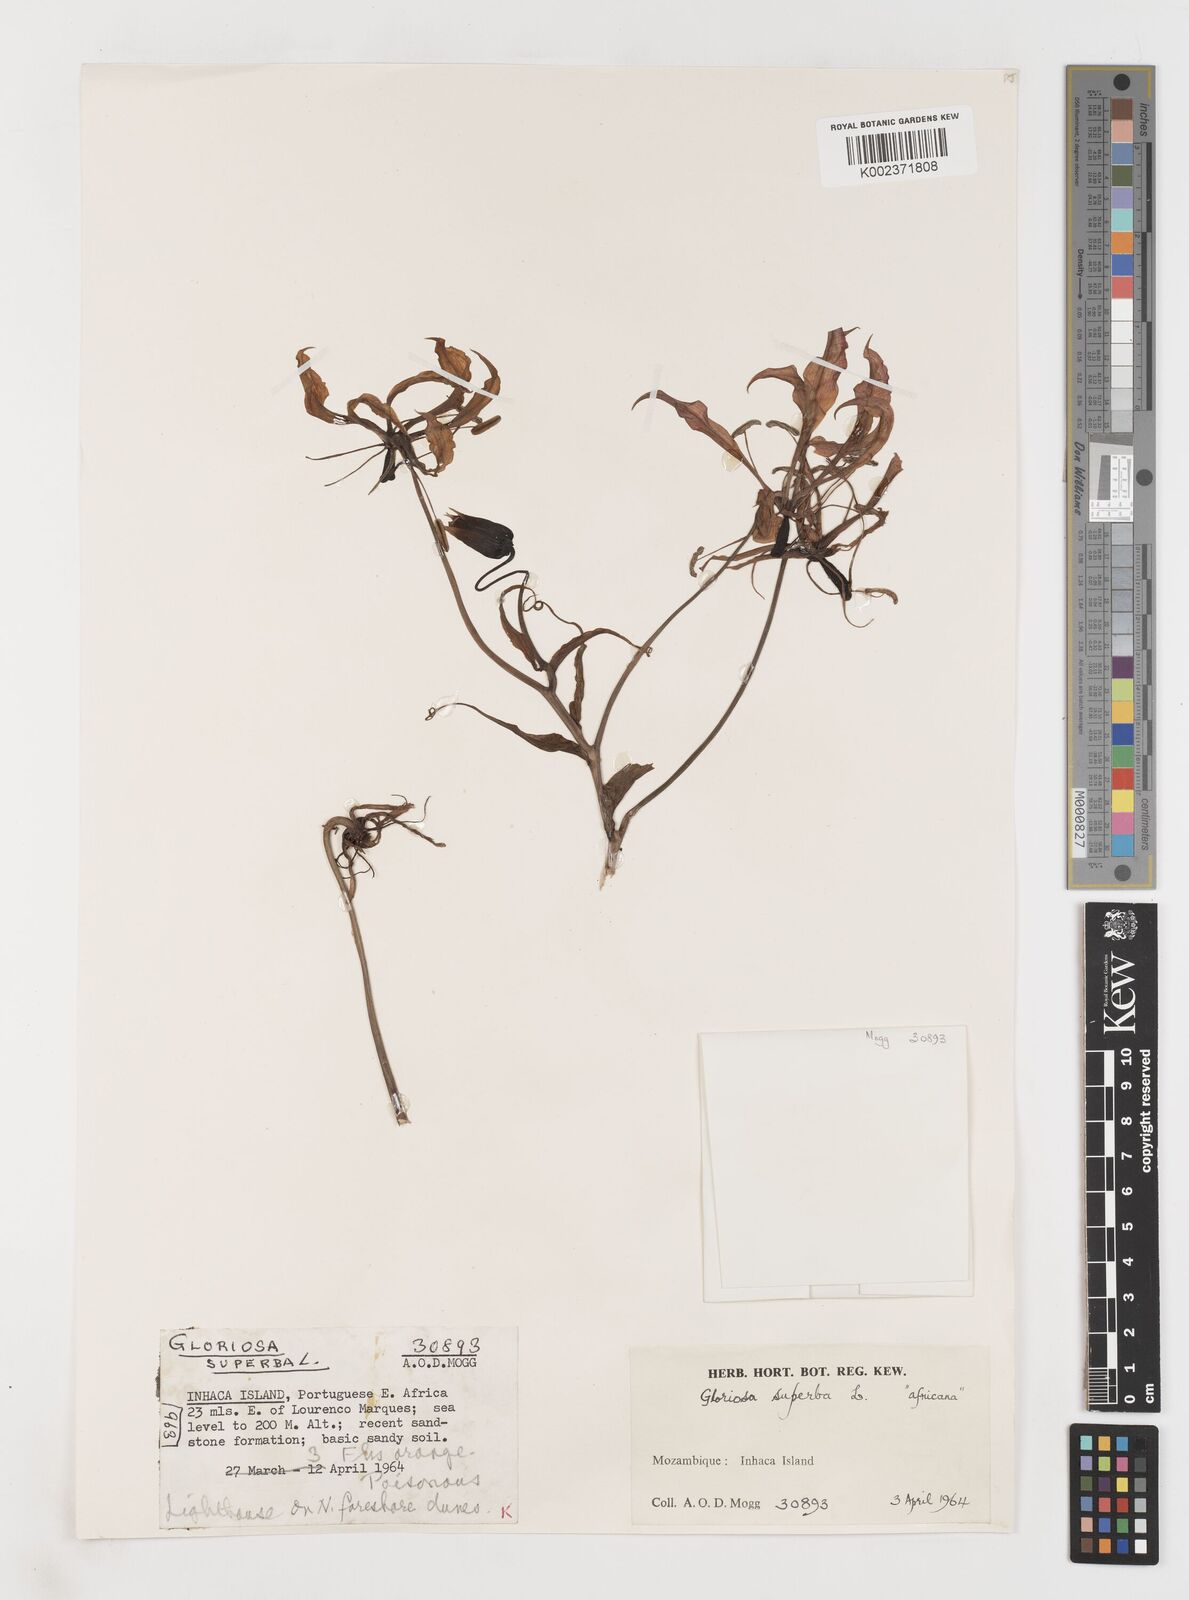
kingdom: Plantae
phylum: Tracheophyta
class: Liliopsida
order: Liliales
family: Colchicaceae
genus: Gloriosa
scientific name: Gloriosa simplex
